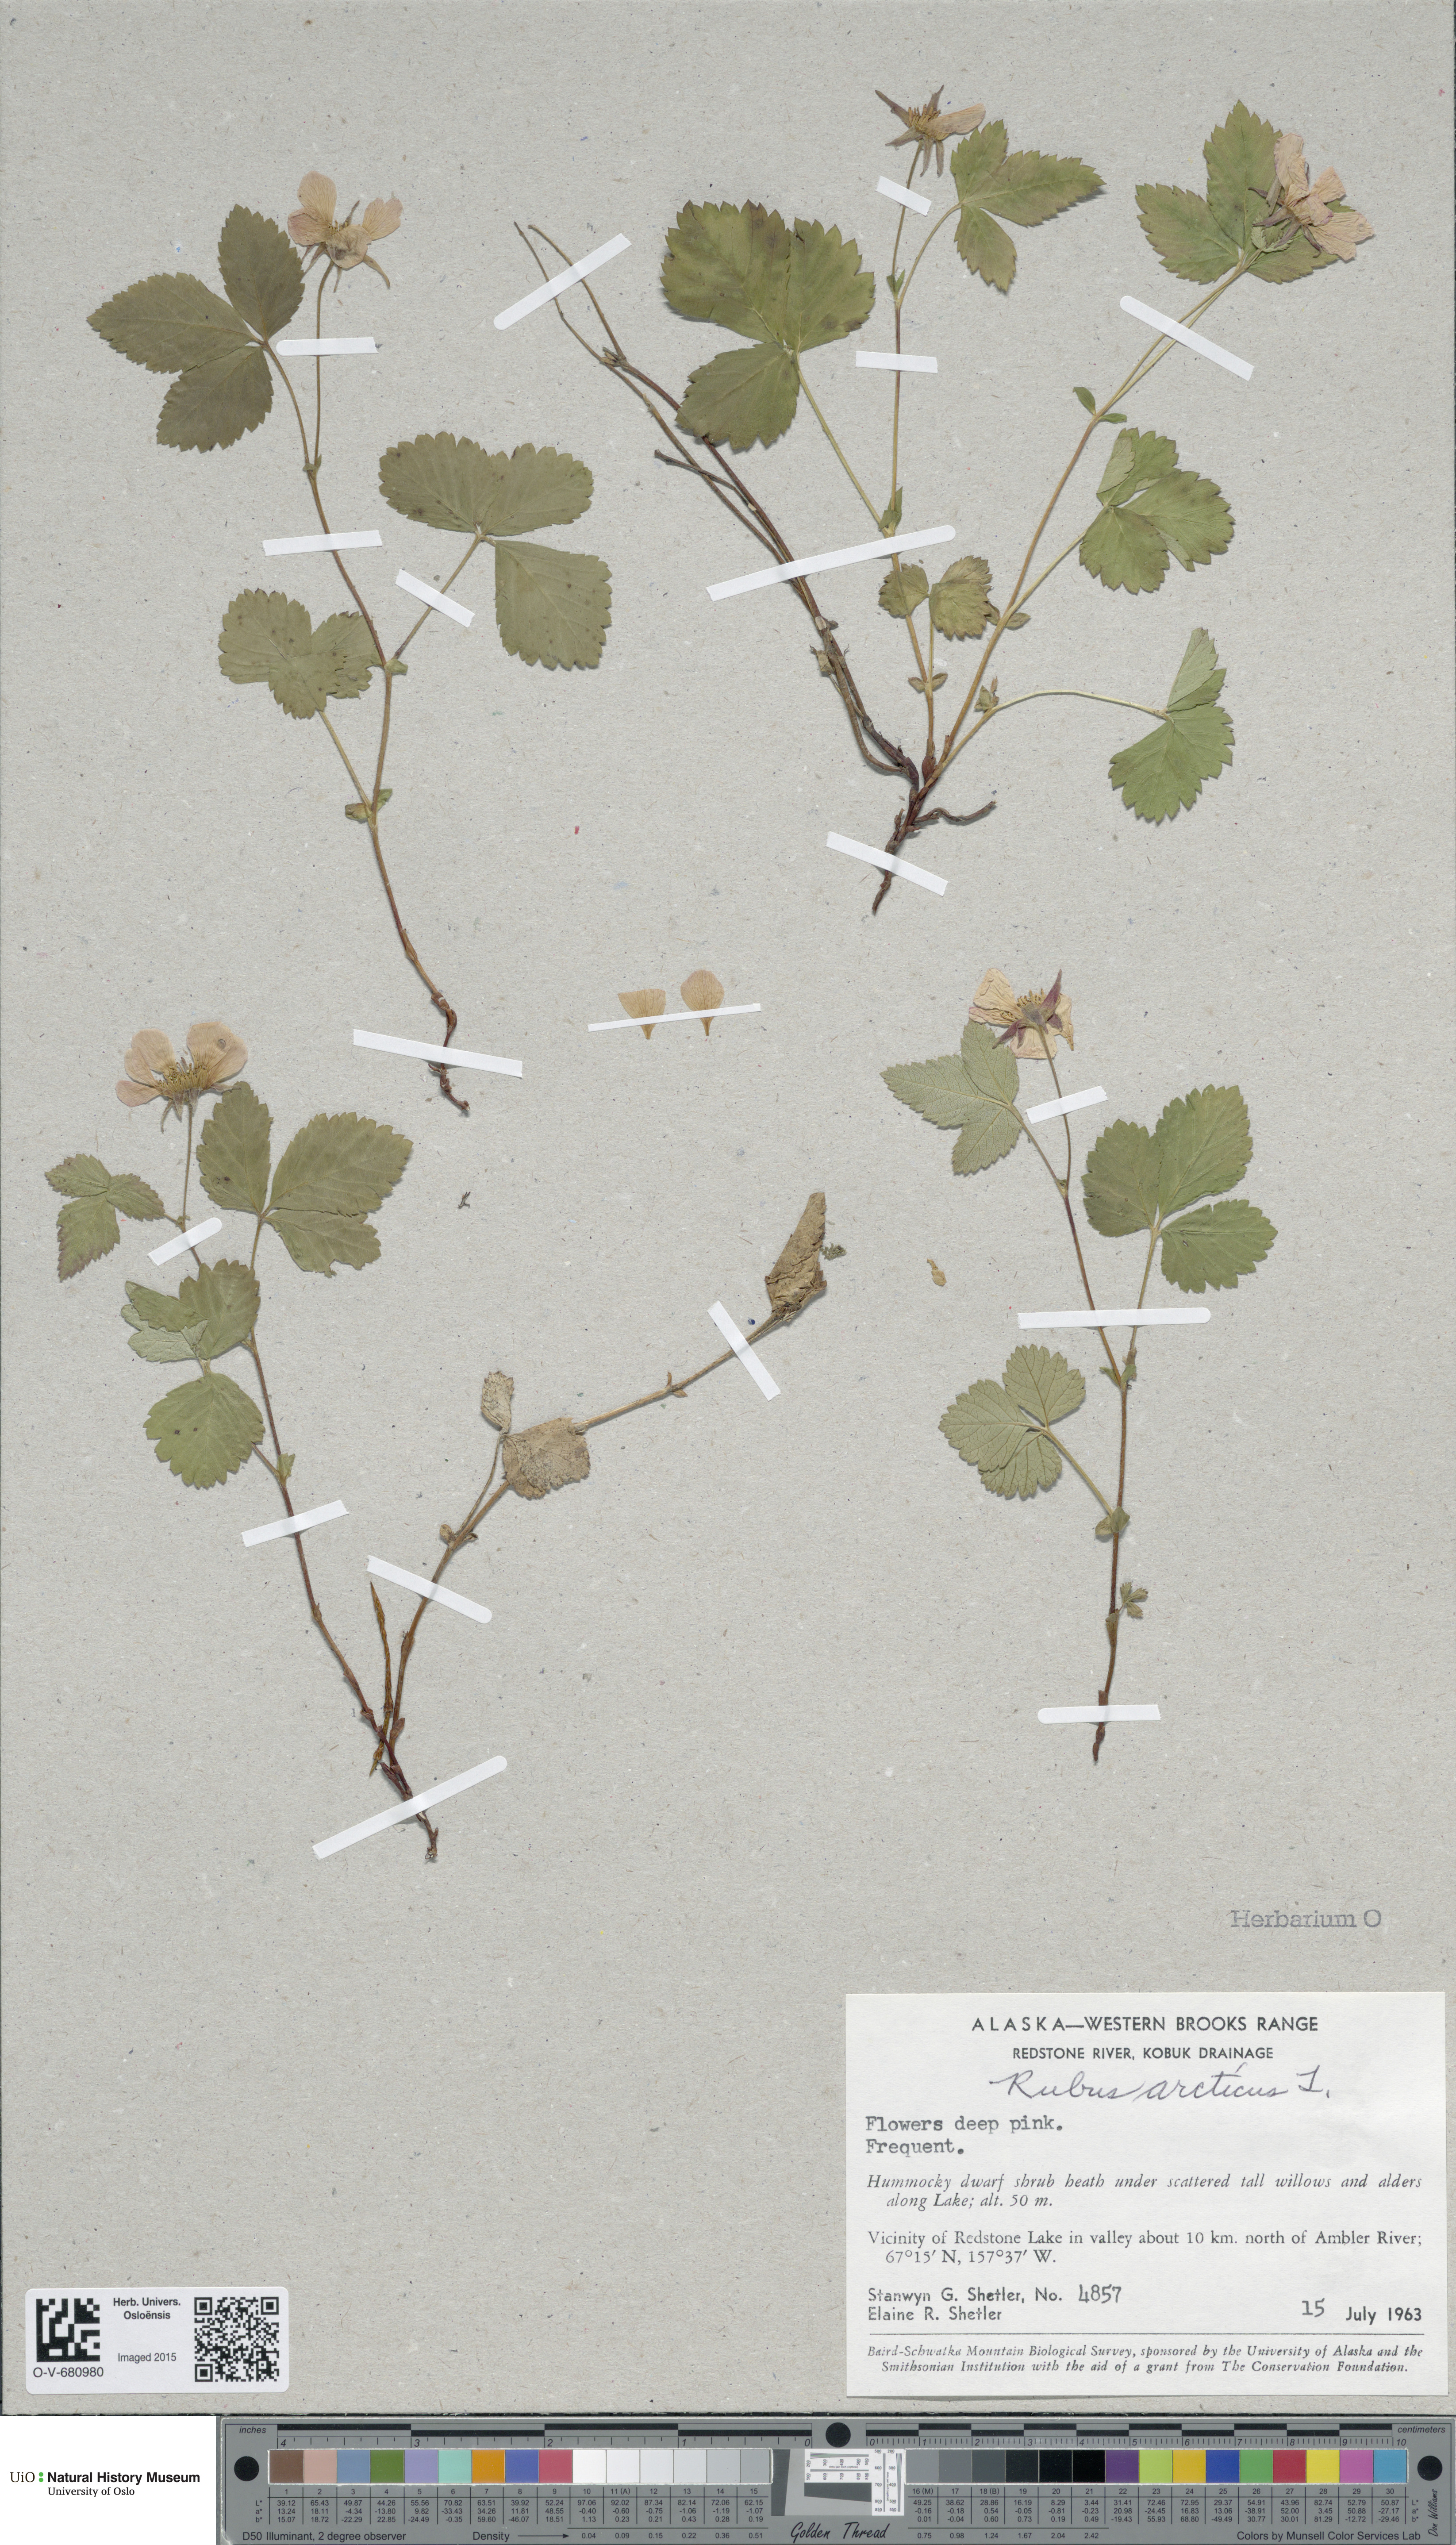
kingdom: Plantae
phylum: Tracheophyta
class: Magnoliopsida
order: Rosales
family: Rosaceae
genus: Rubus
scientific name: Rubus arcticus
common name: Arctic bramble
